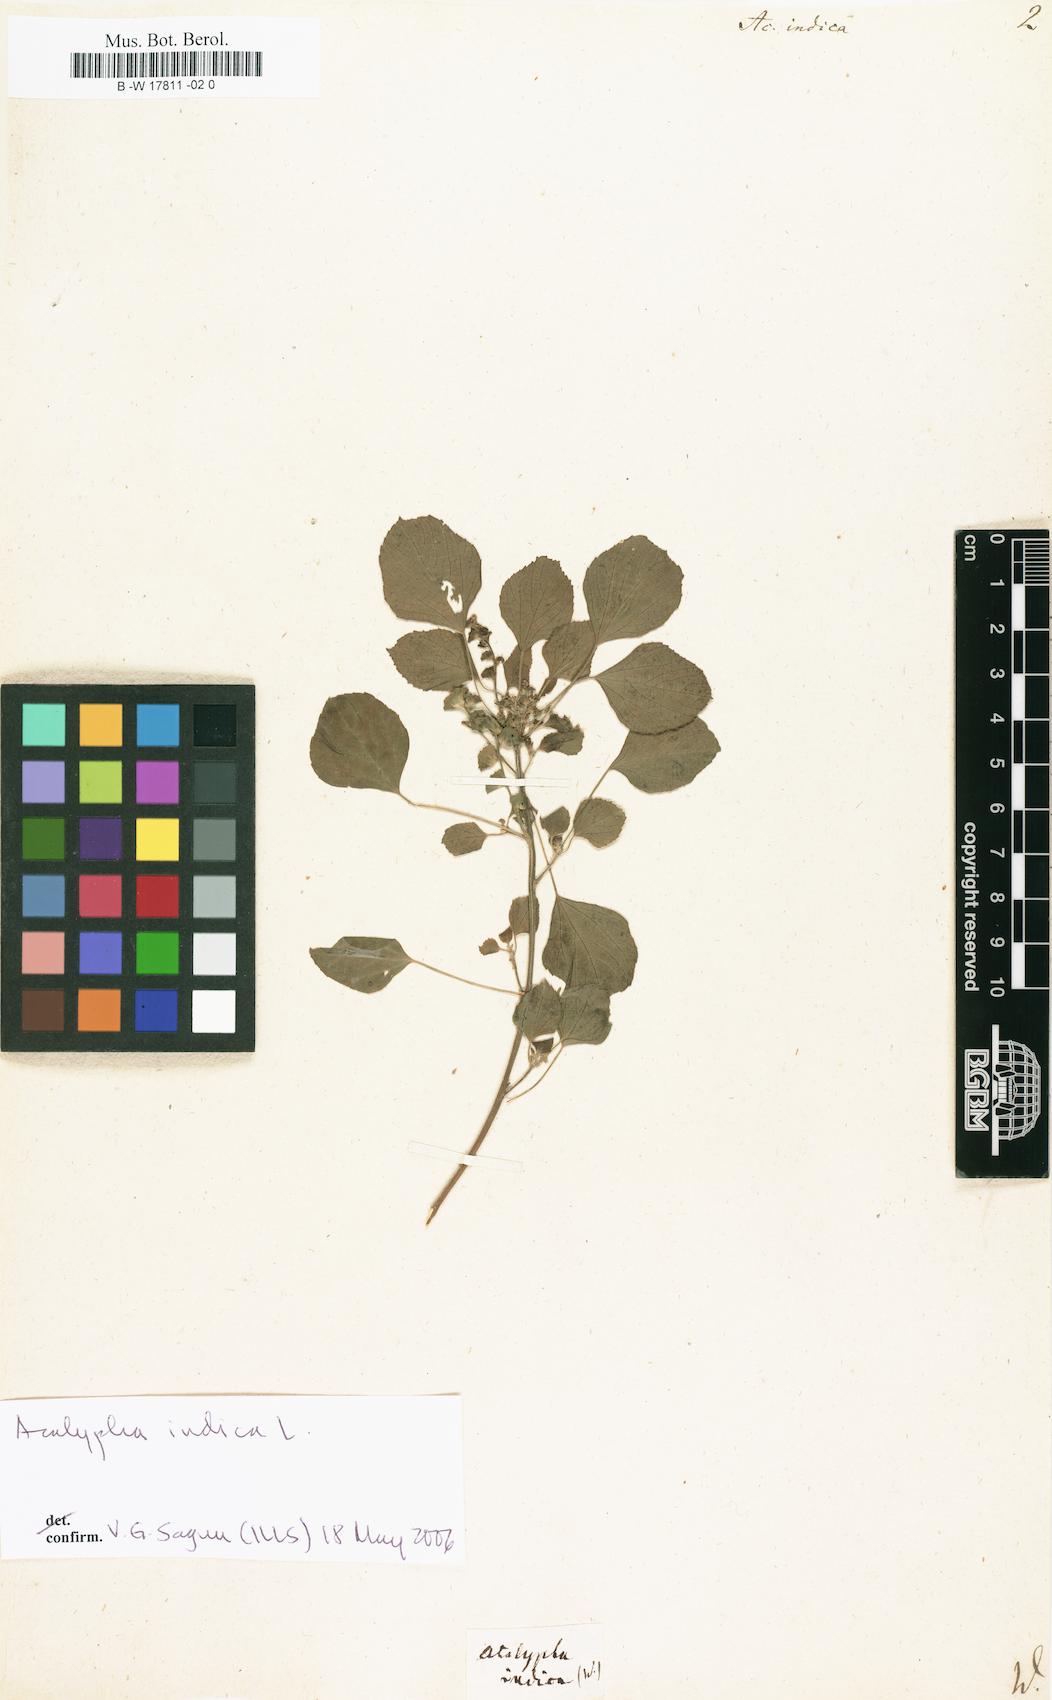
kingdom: Plantae
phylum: Tracheophyta
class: Magnoliopsida
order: Malpighiales
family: Euphorbiaceae
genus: Acalypha
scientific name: Acalypha indica
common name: Indian acalypha
